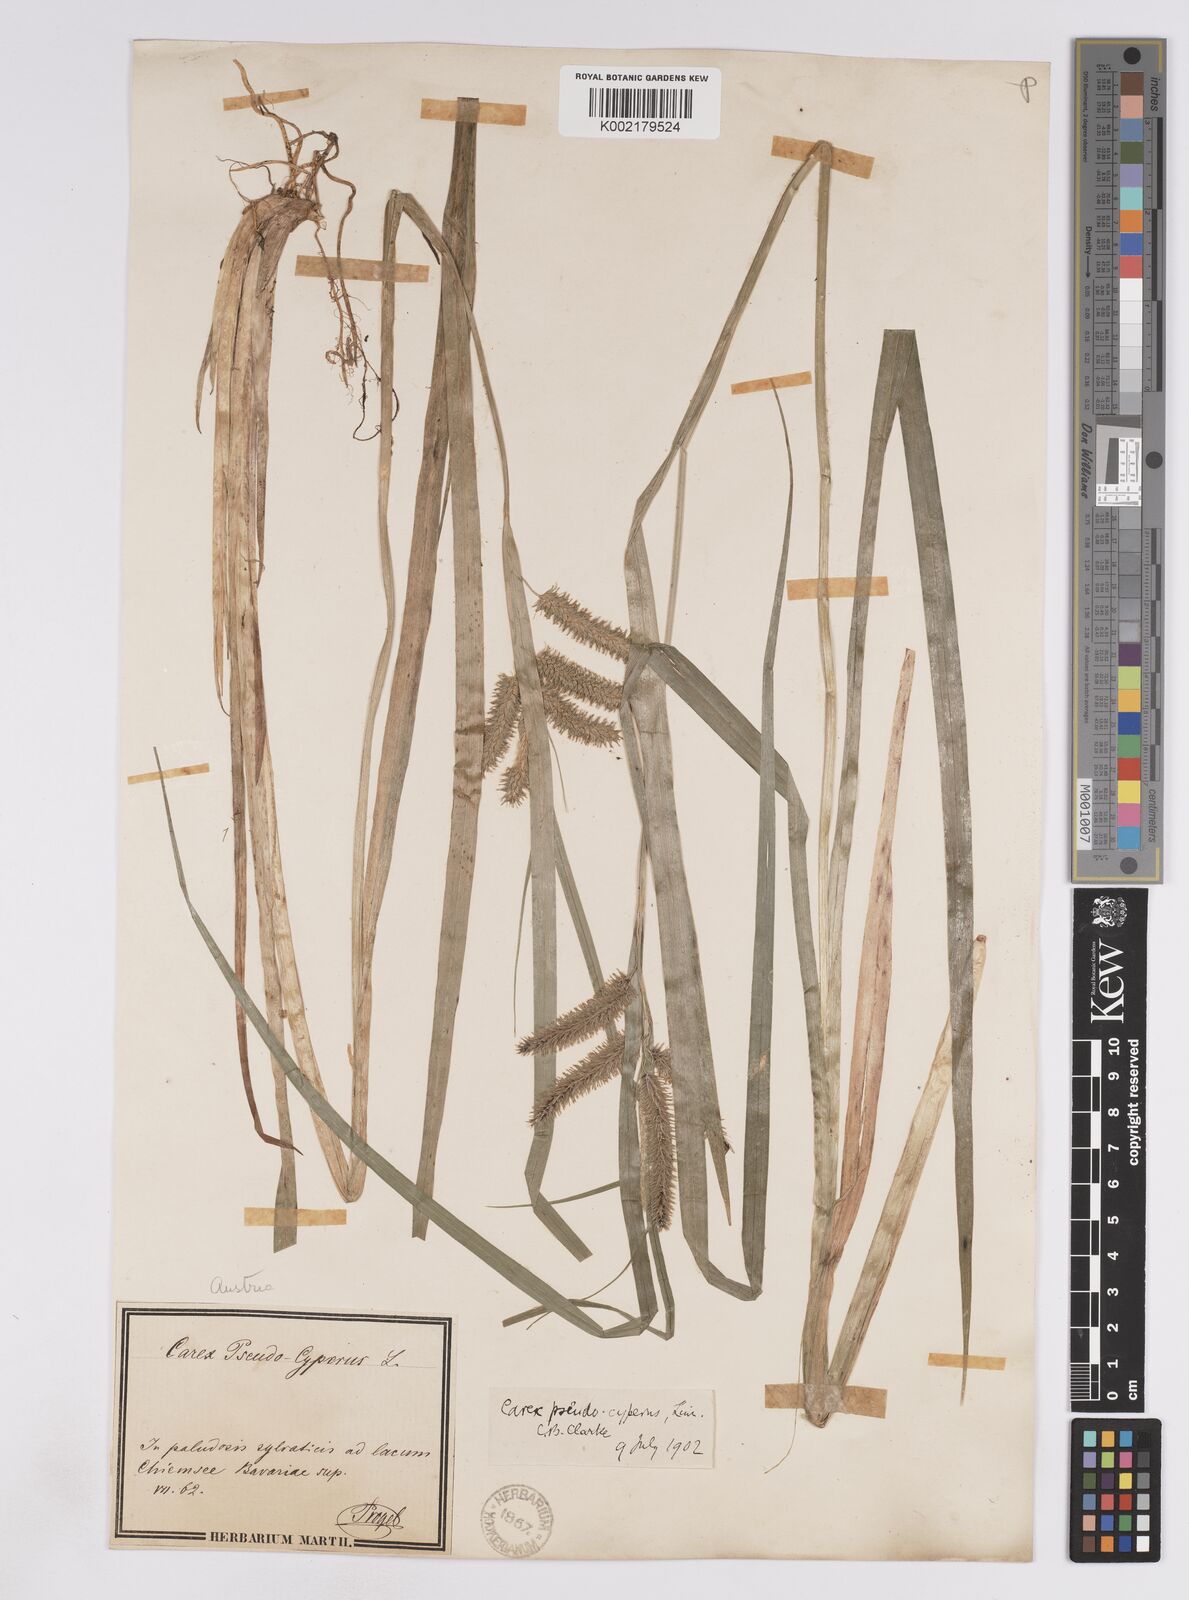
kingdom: Plantae
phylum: Tracheophyta
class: Liliopsida
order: Poales
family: Cyperaceae
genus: Carex
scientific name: Carex pseudocyperus
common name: Cyperus sedge
